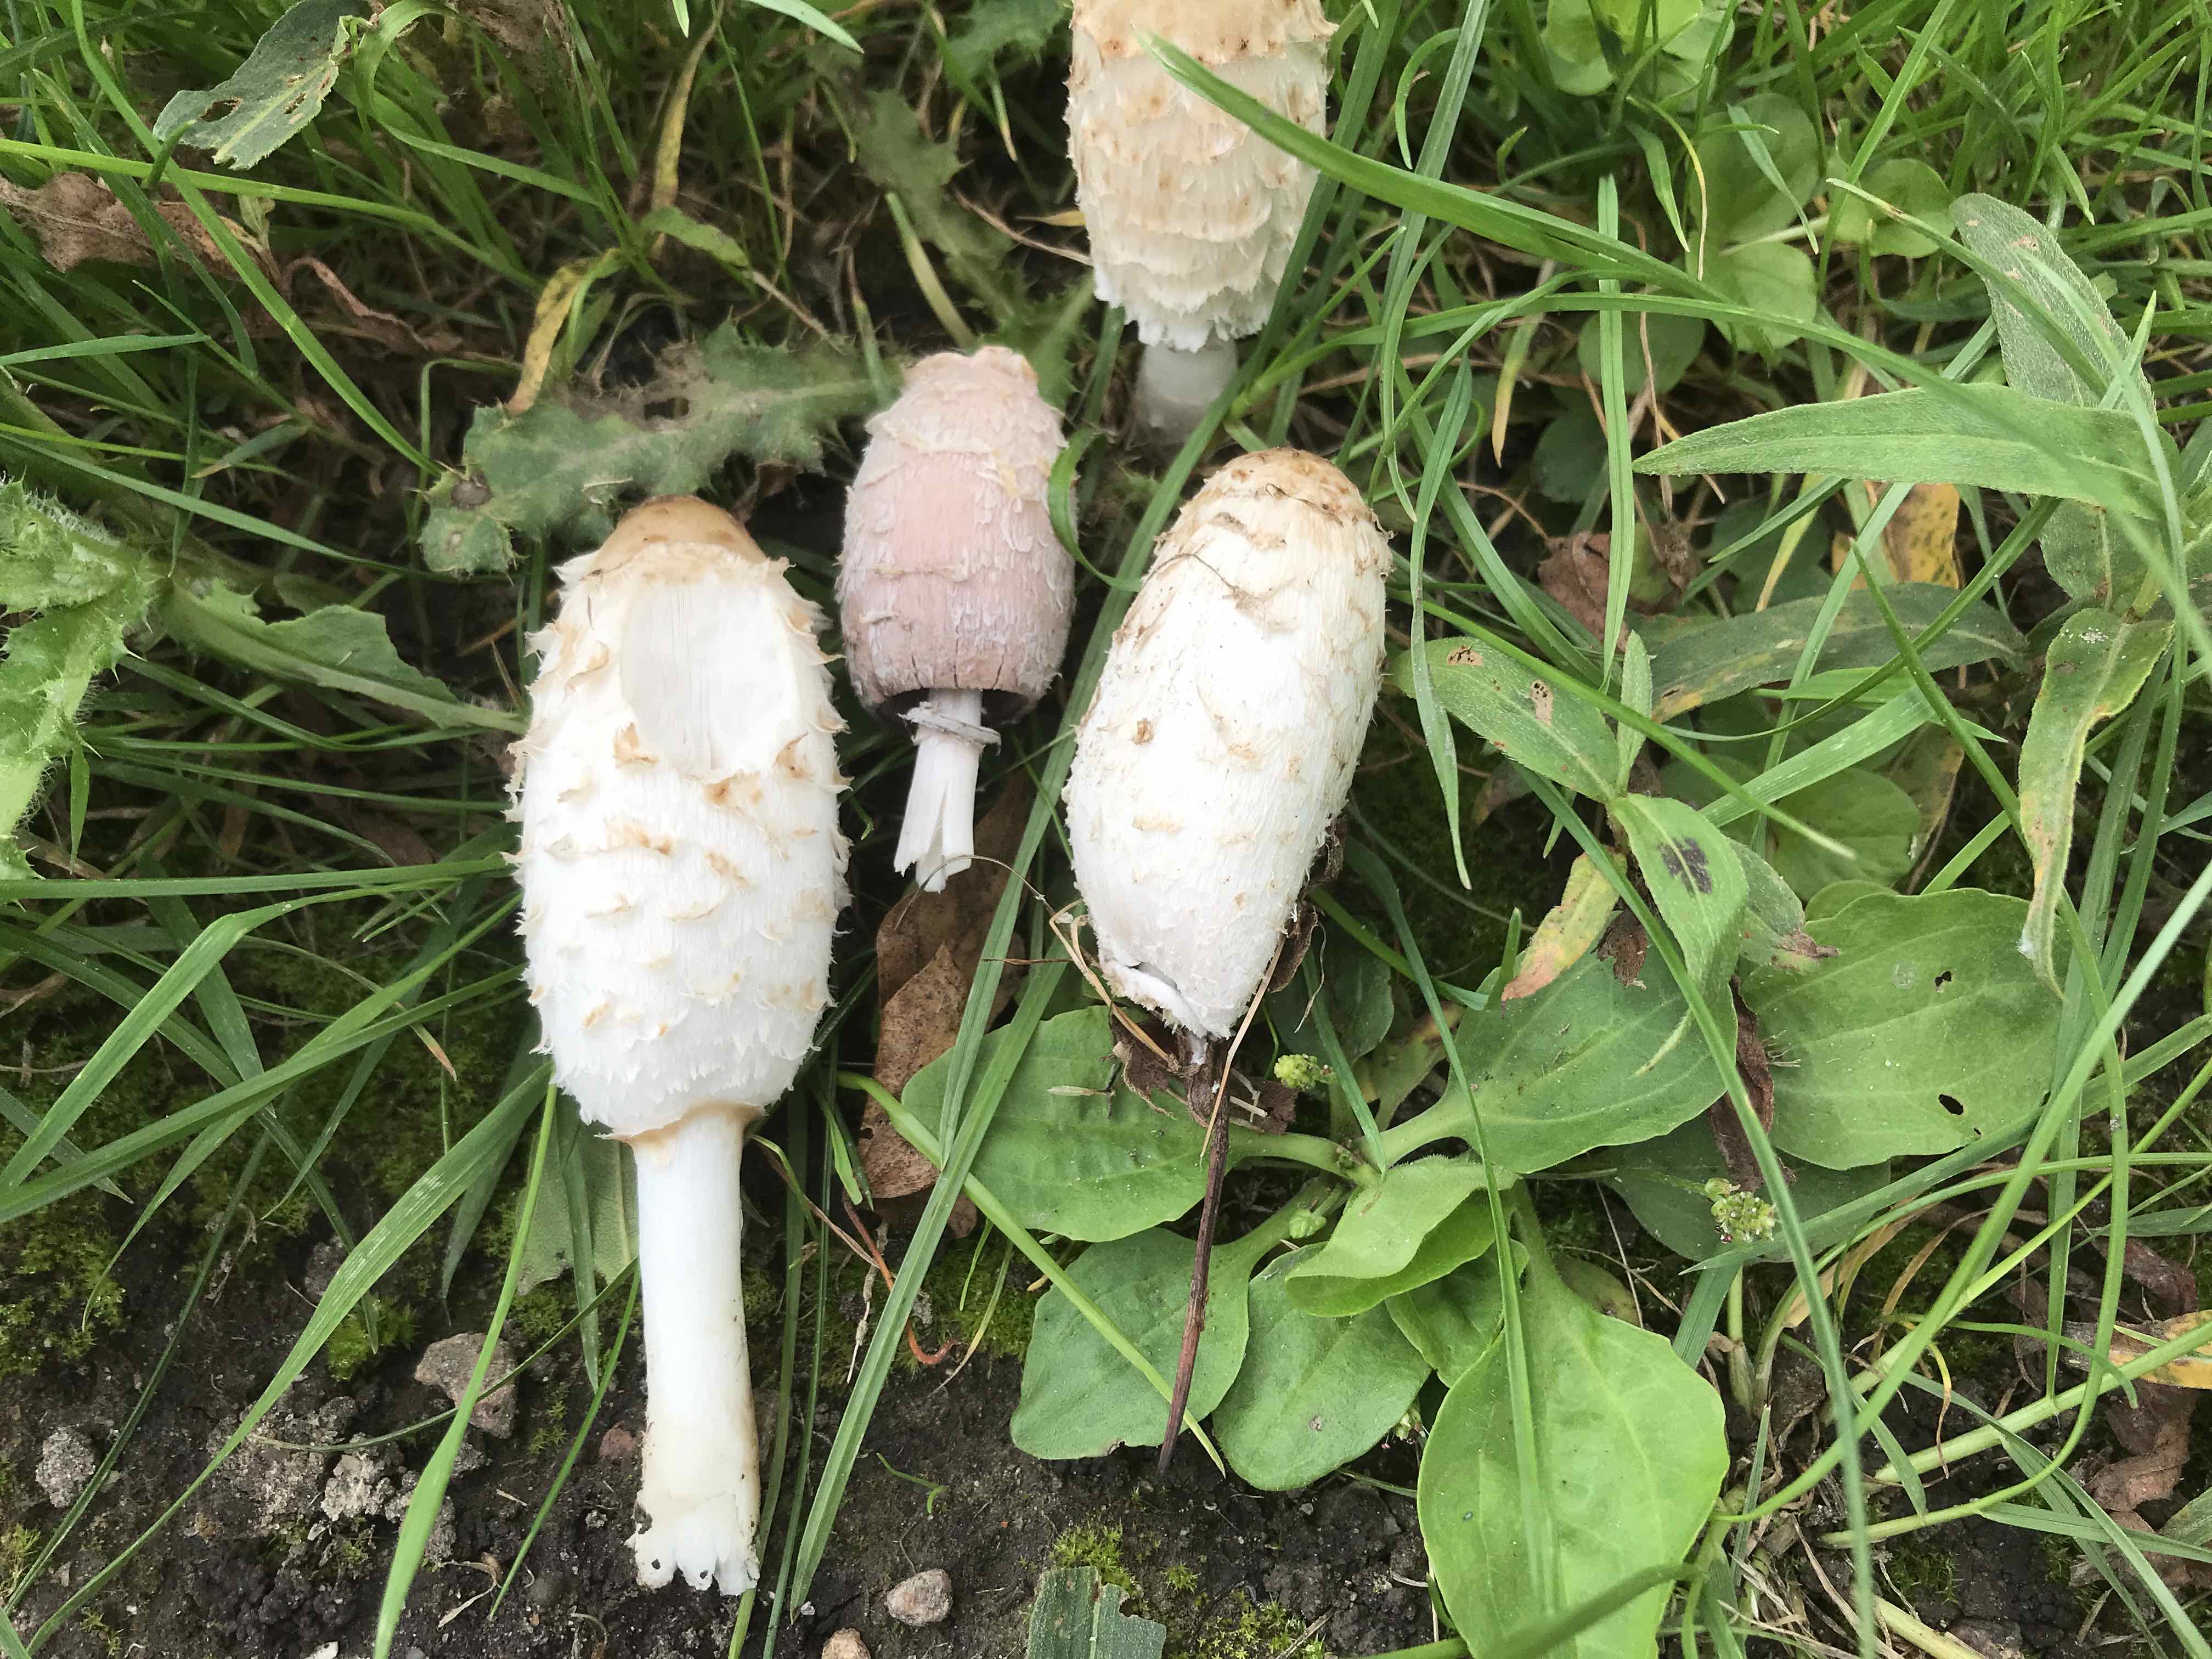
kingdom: Fungi
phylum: Basidiomycota
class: Agaricomycetes
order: Agaricales
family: Agaricaceae
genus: Coprinus
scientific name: Coprinus comatus
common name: stor parykhat
